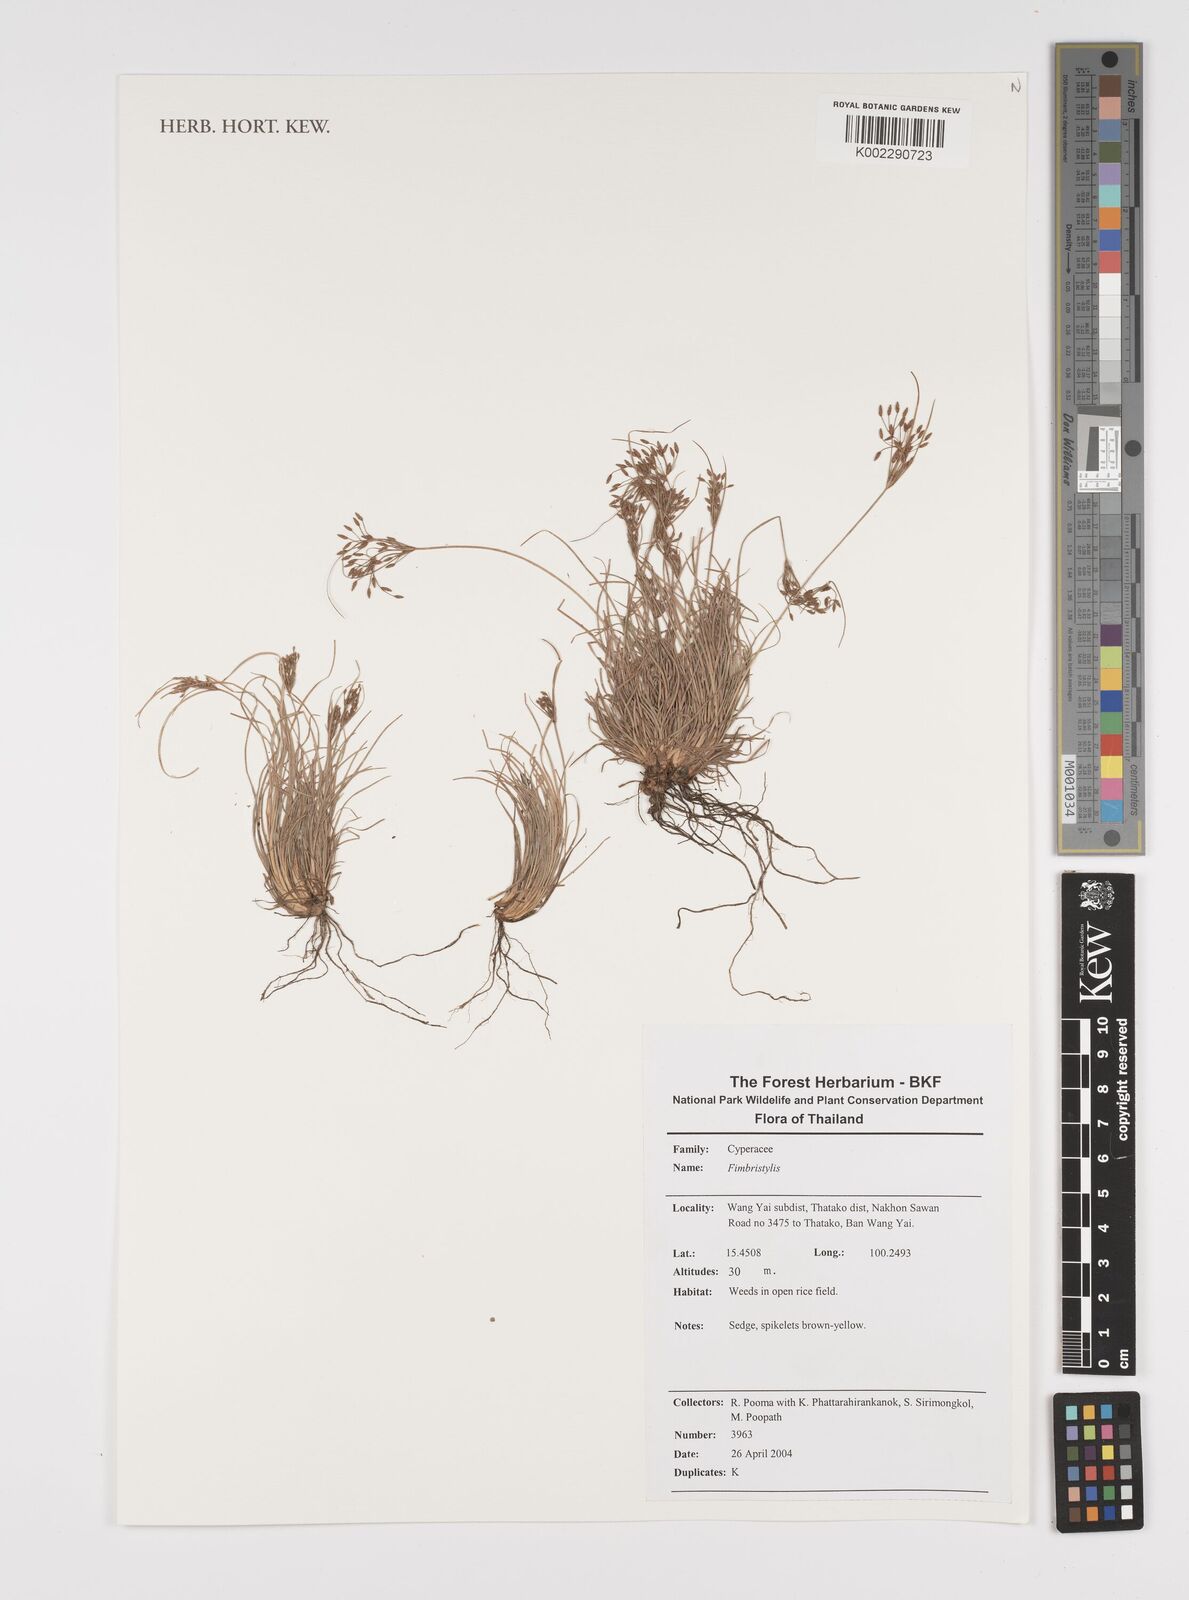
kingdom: Plantae
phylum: Tracheophyta
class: Liliopsida
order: Poales
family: Cyperaceae
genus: Fimbristylis
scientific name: Fimbristylis
